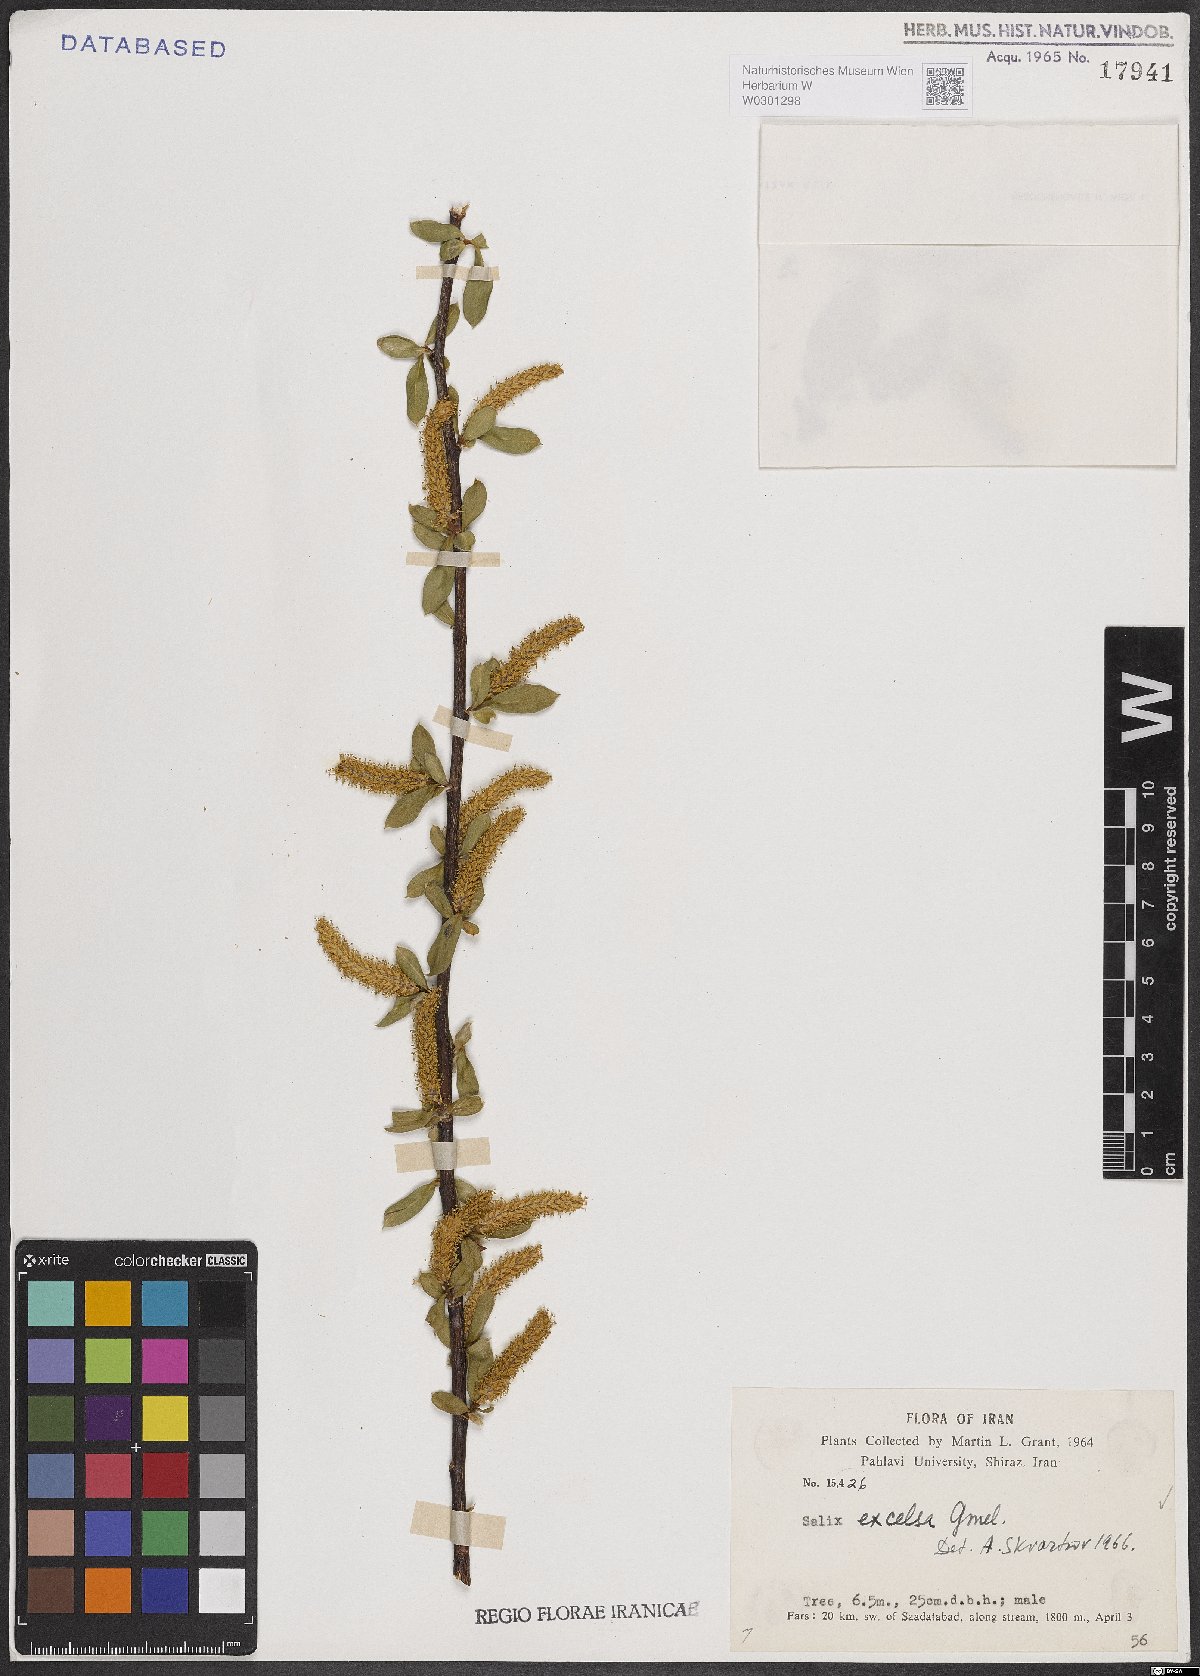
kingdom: Plantae
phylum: Tracheophyta
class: Magnoliopsida
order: Malpighiales
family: Salicaceae
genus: Salix
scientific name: Salix excelsa
